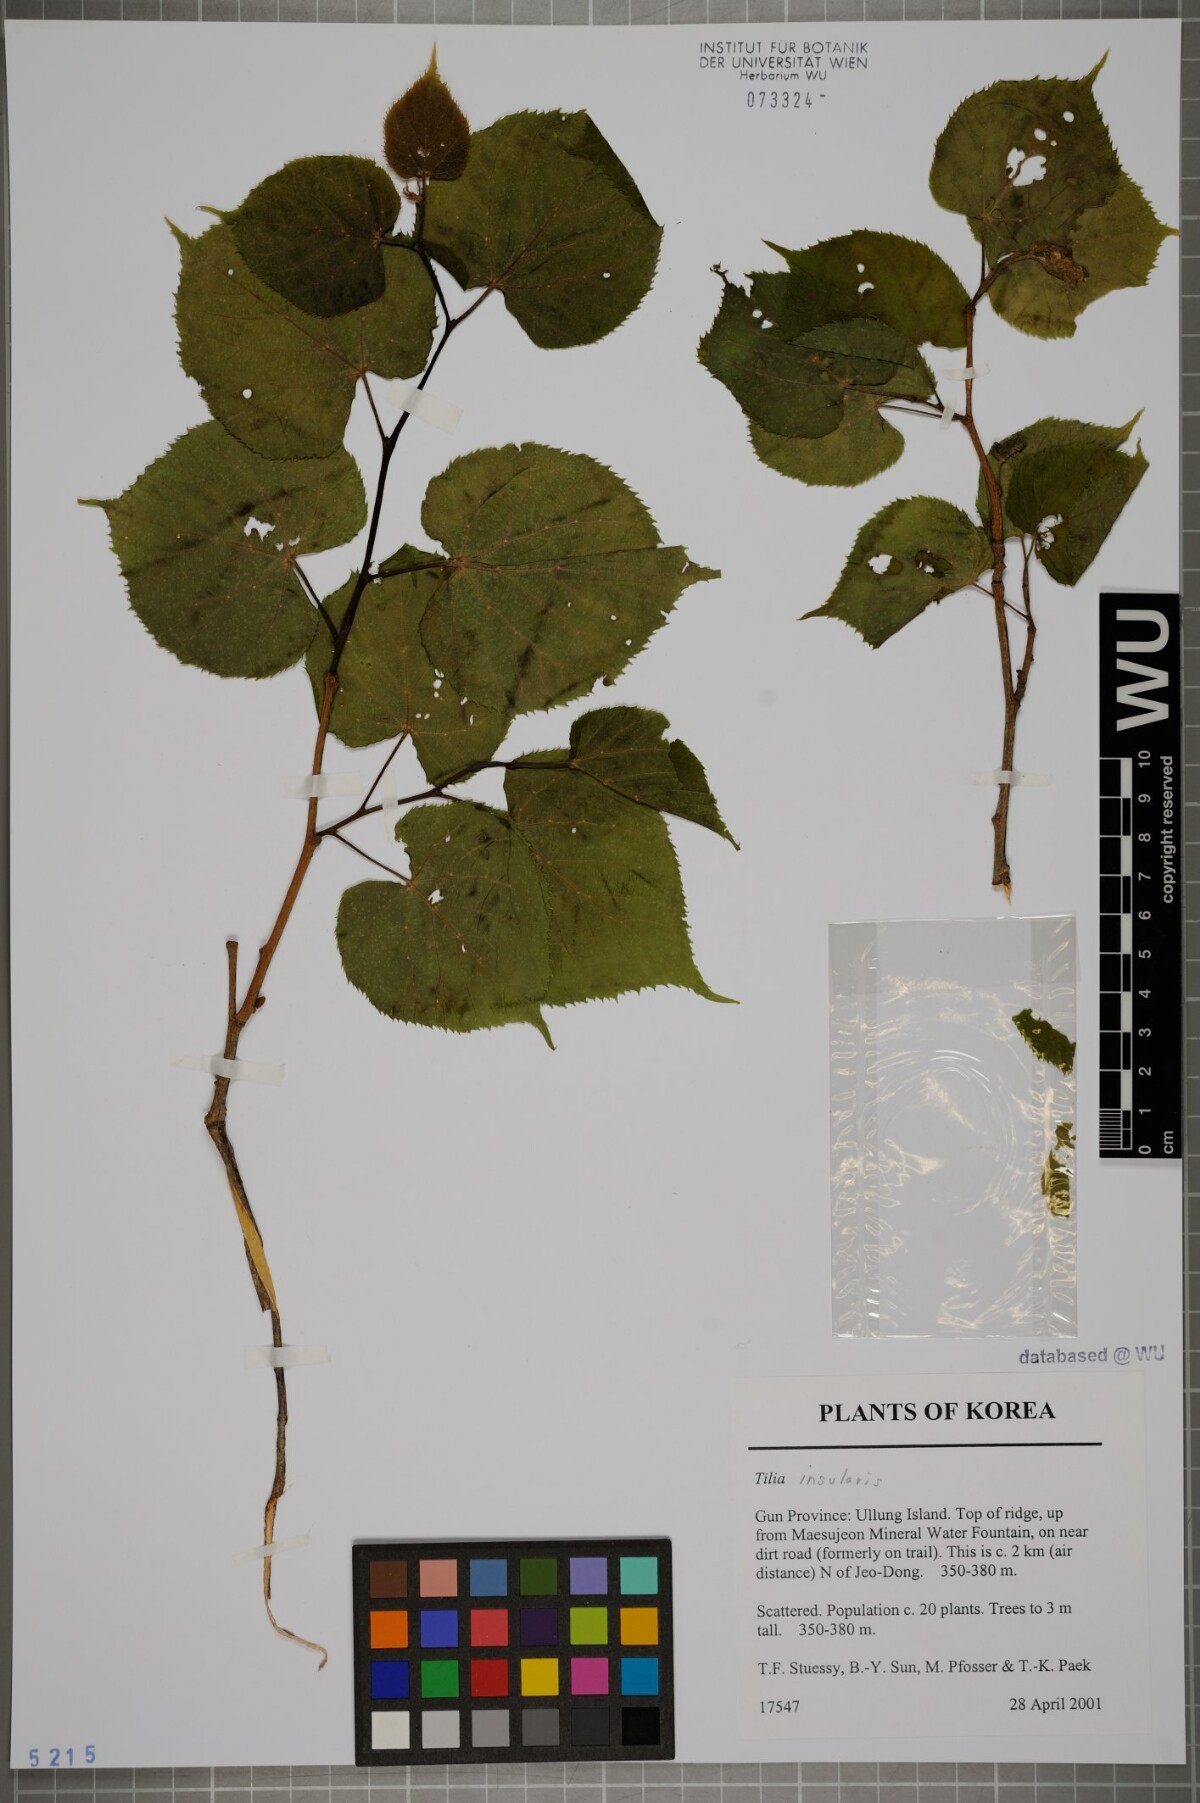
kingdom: Plantae
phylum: Tracheophyta
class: Magnoliopsida
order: Malvales
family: Malvaceae
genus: Tilia
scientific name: Tilia amurensis
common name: Amur lime
